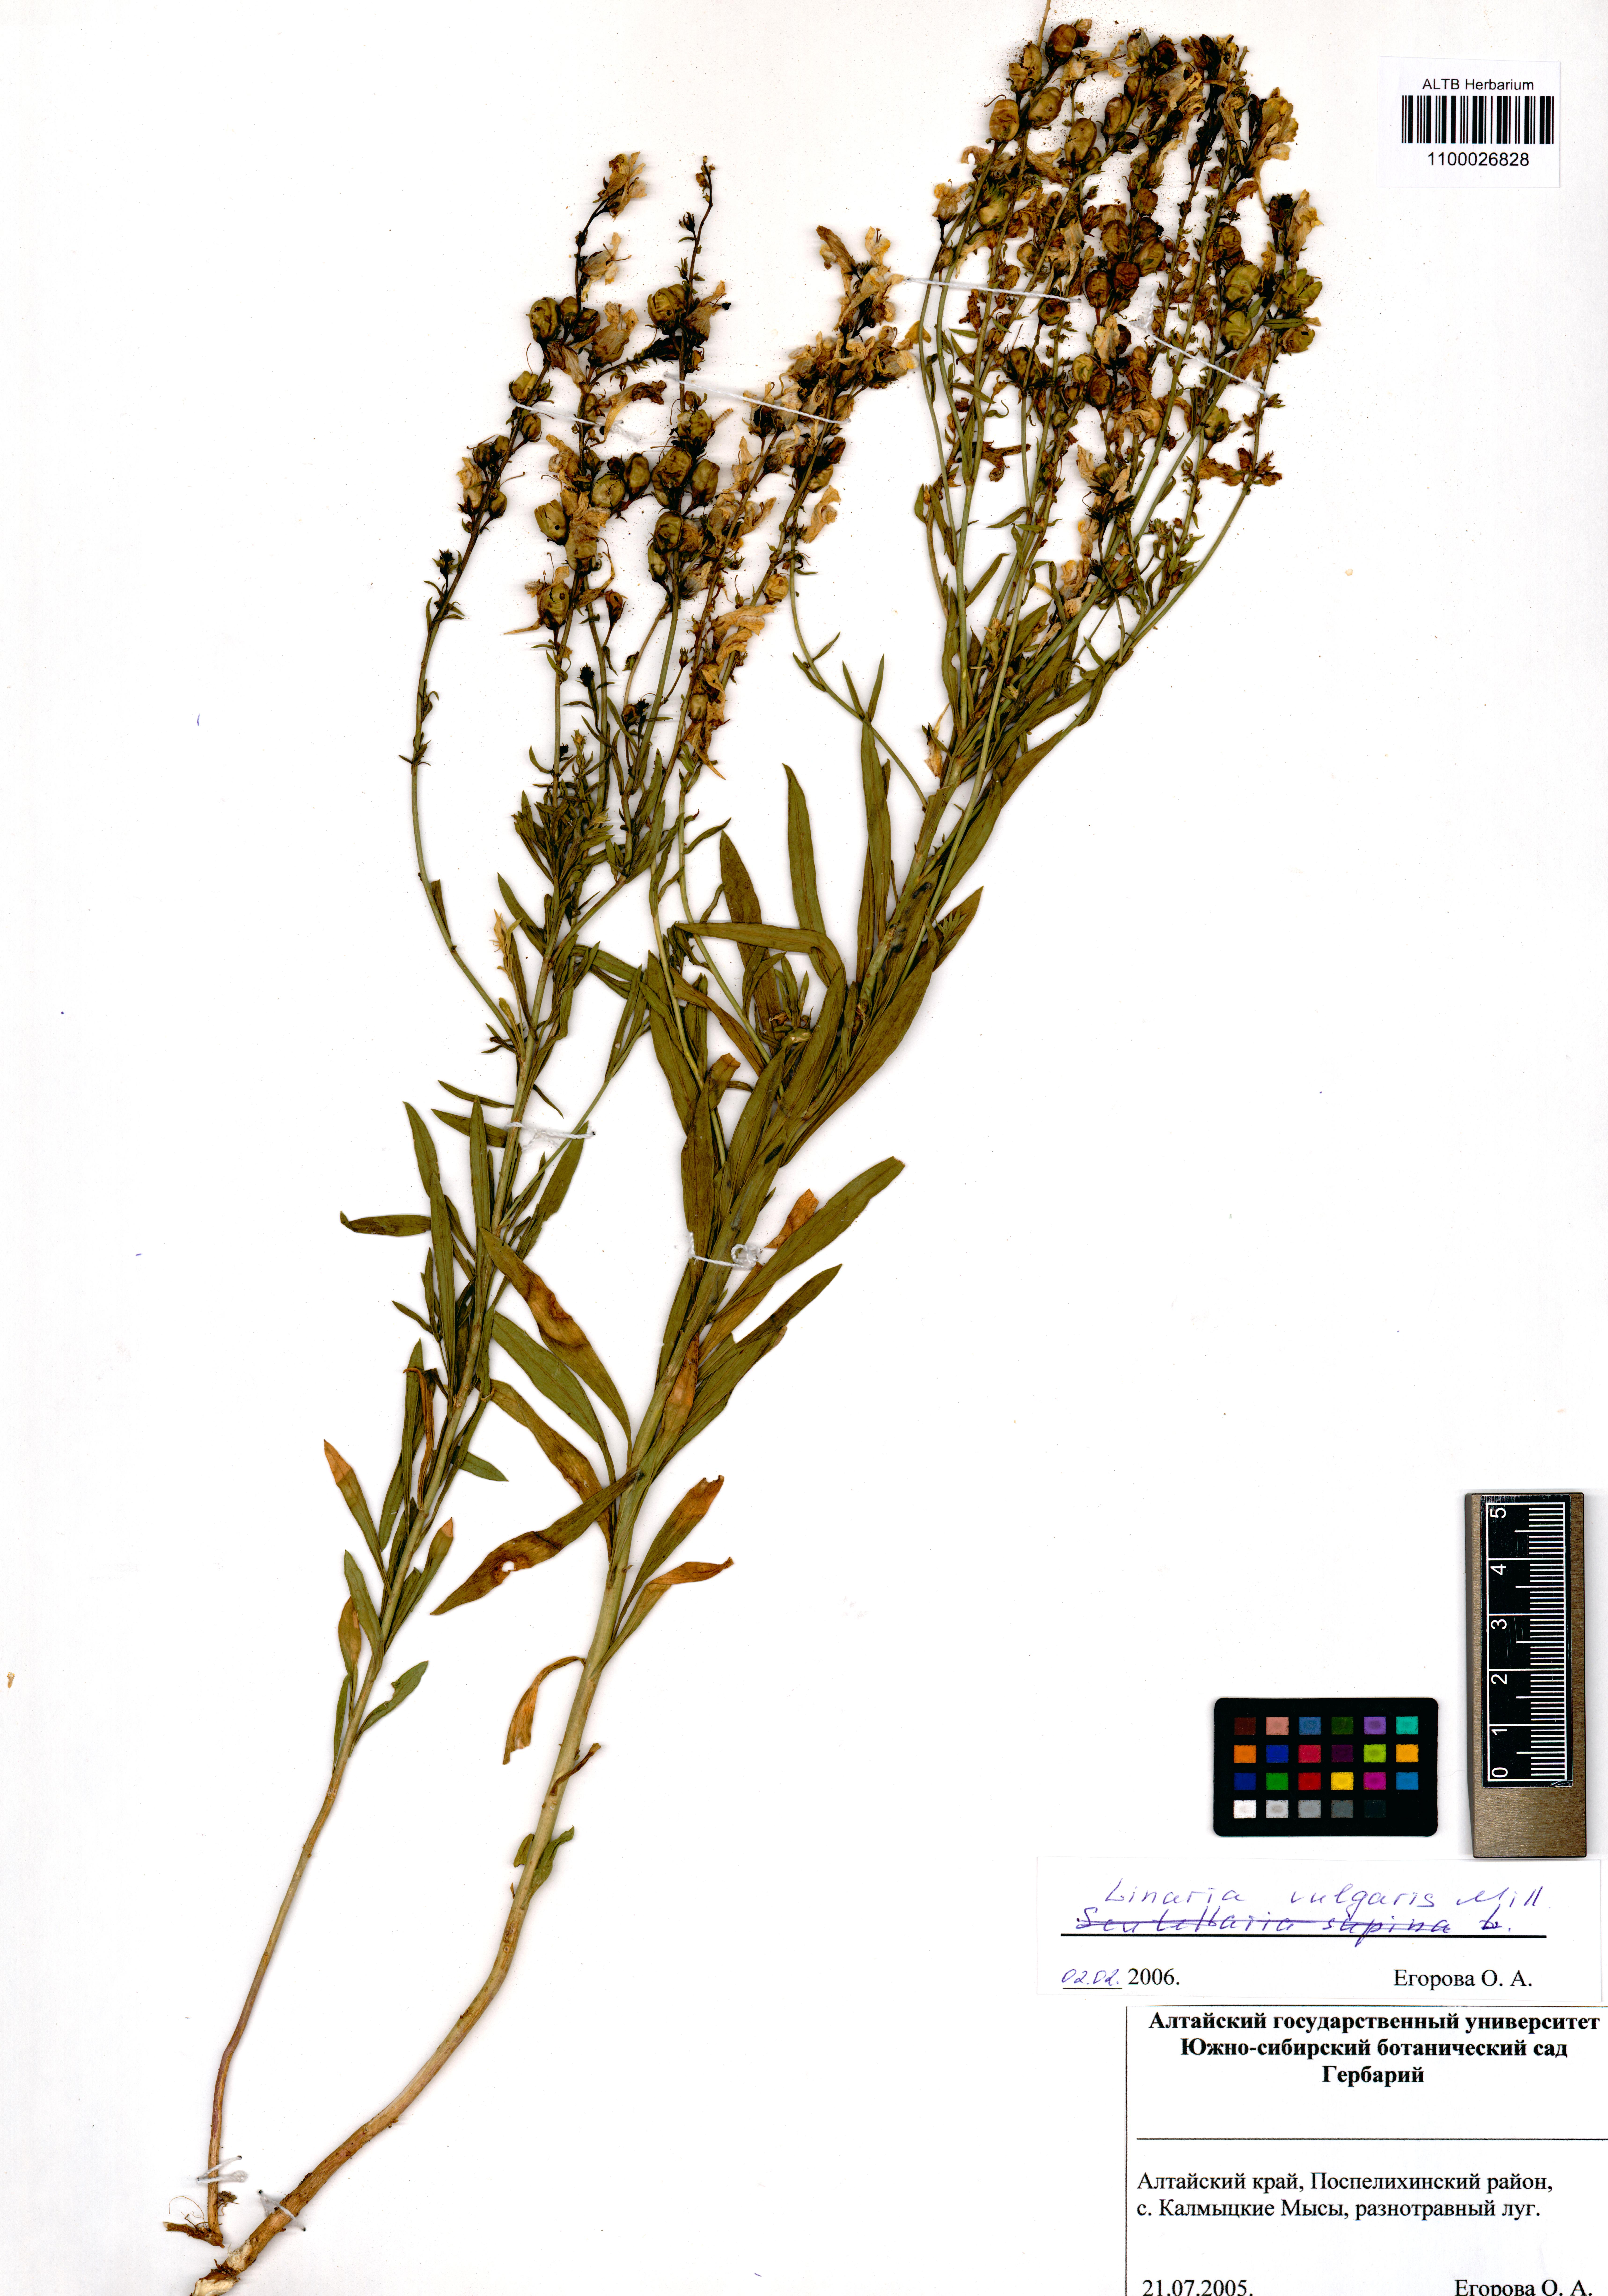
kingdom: Plantae
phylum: Tracheophyta
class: Magnoliopsida
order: Lamiales
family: Plantaginaceae
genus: Linaria
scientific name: Linaria vulgaris
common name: Butter and eggs
